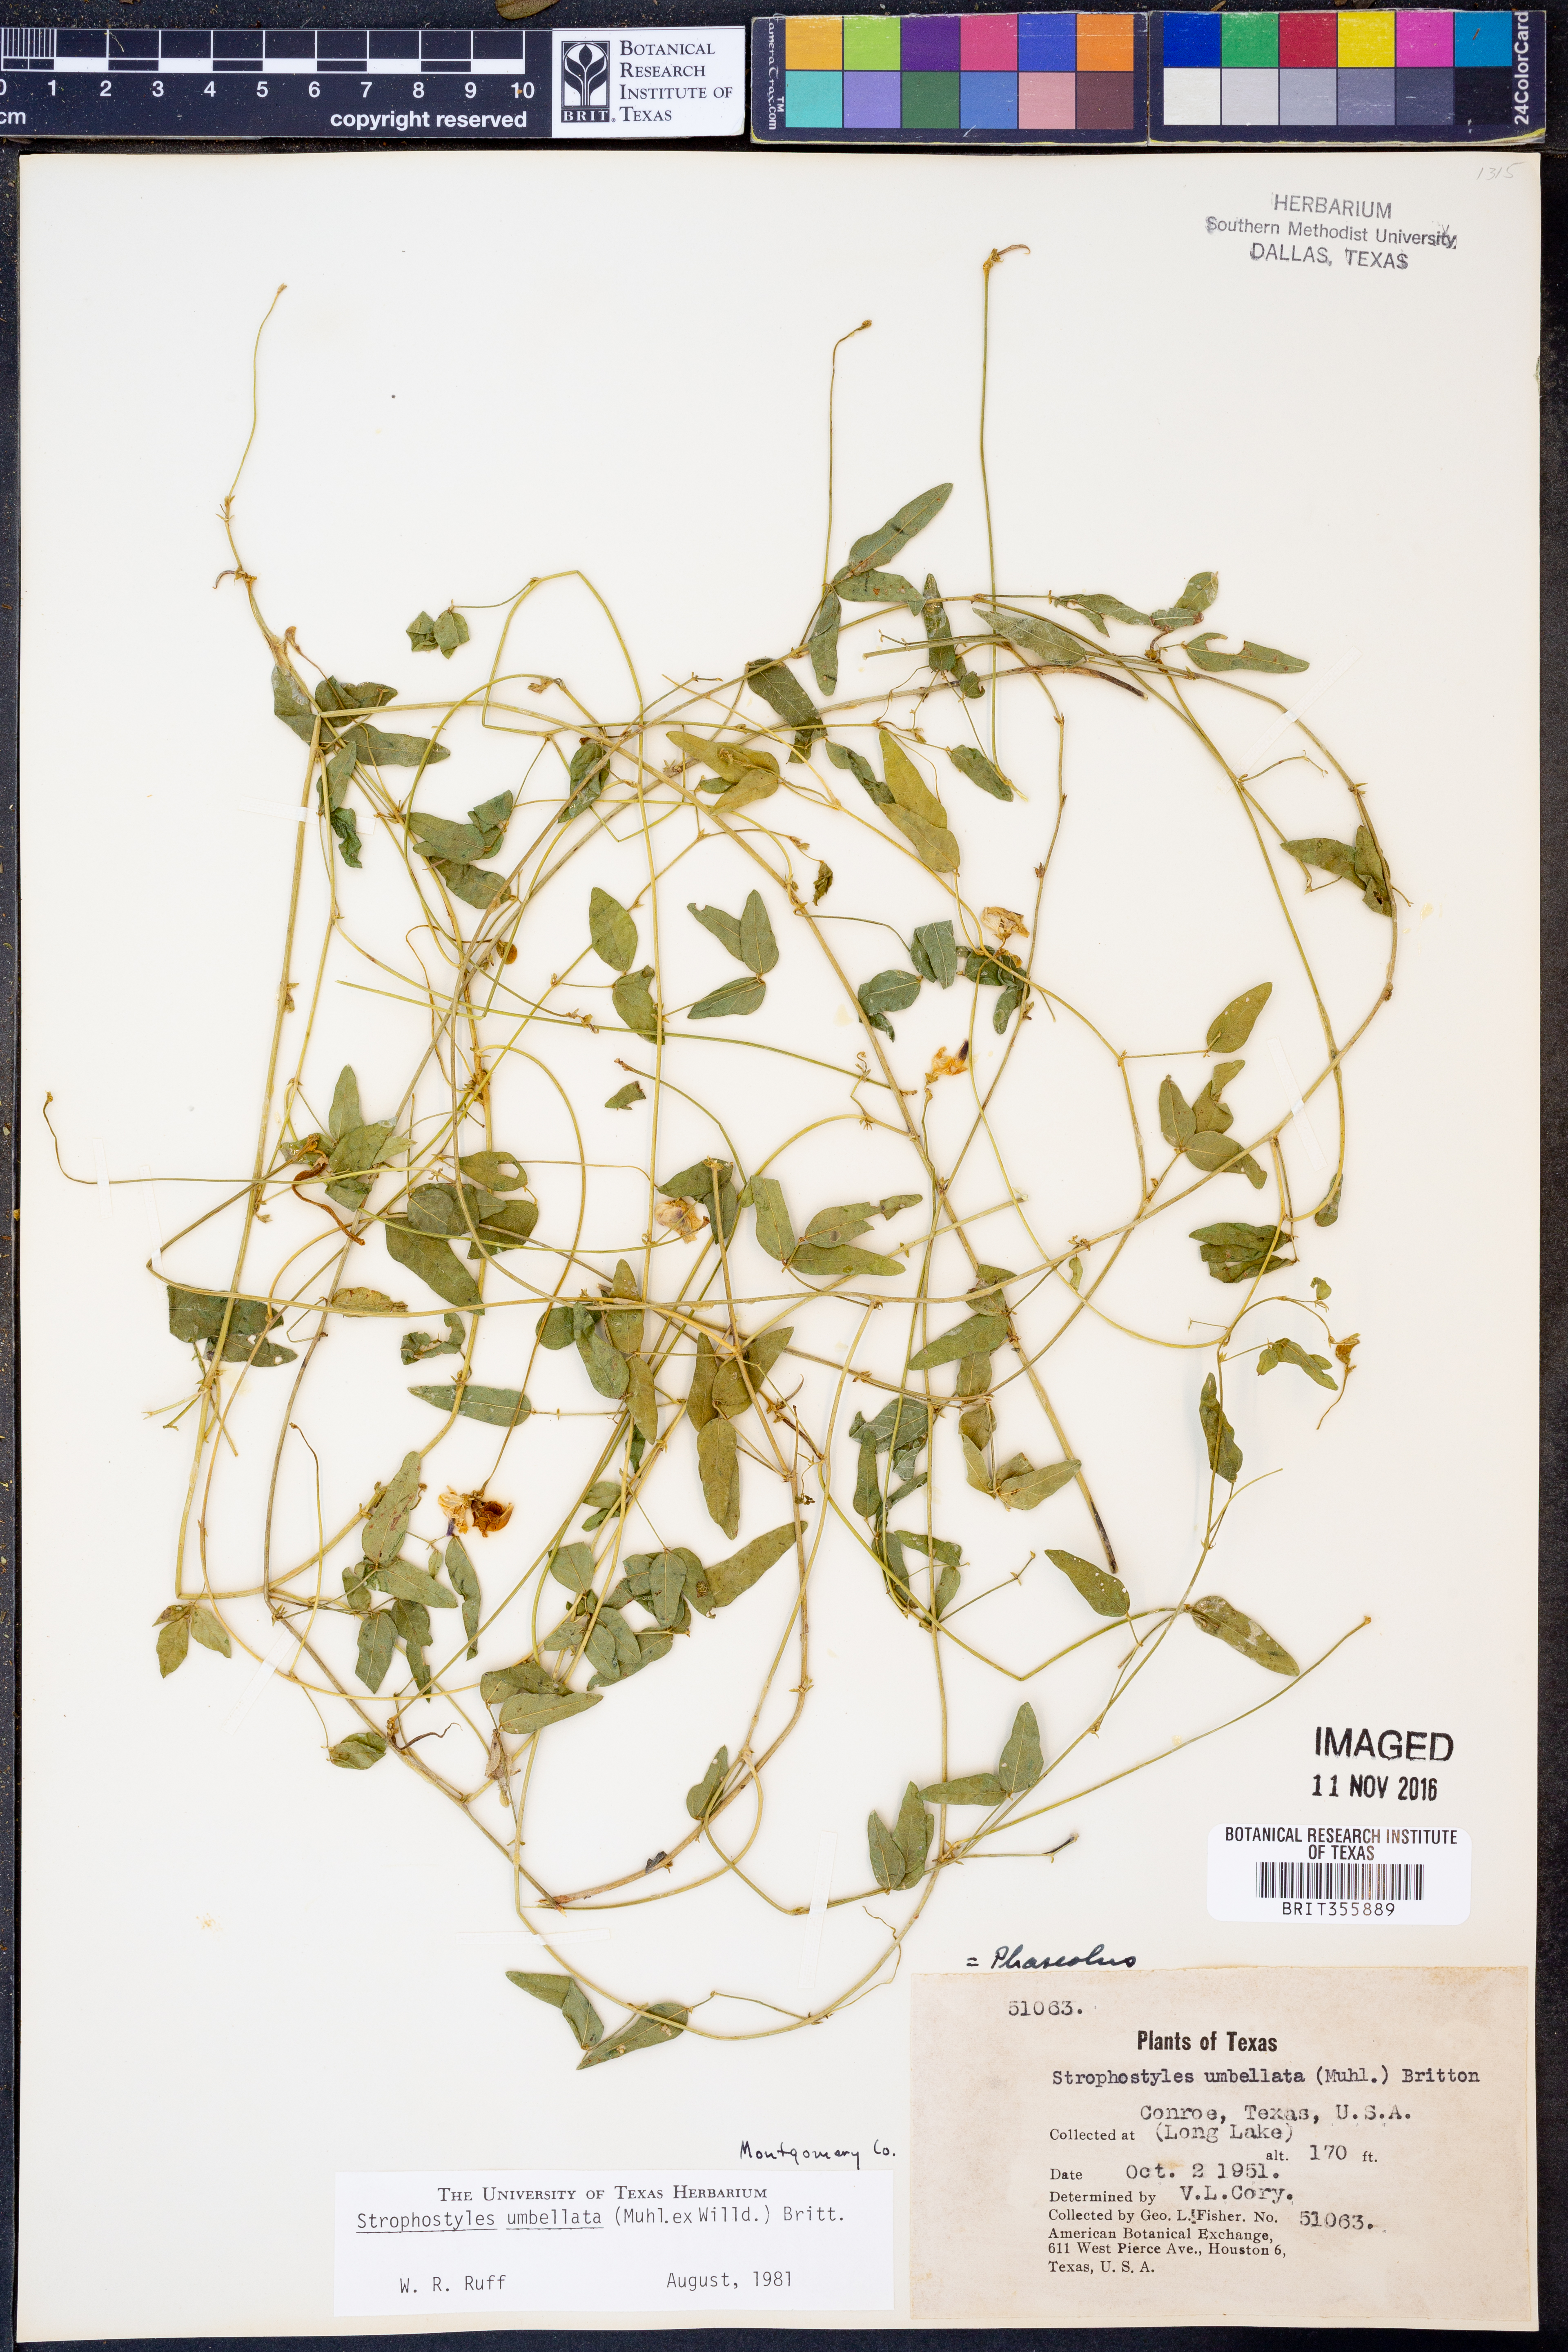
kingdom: Plantae
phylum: Tracheophyta
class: Magnoliopsida
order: Fabales
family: Fabaceae
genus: Strophostyles
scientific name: Strophostyles umbellata
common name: Perennial wild bean
